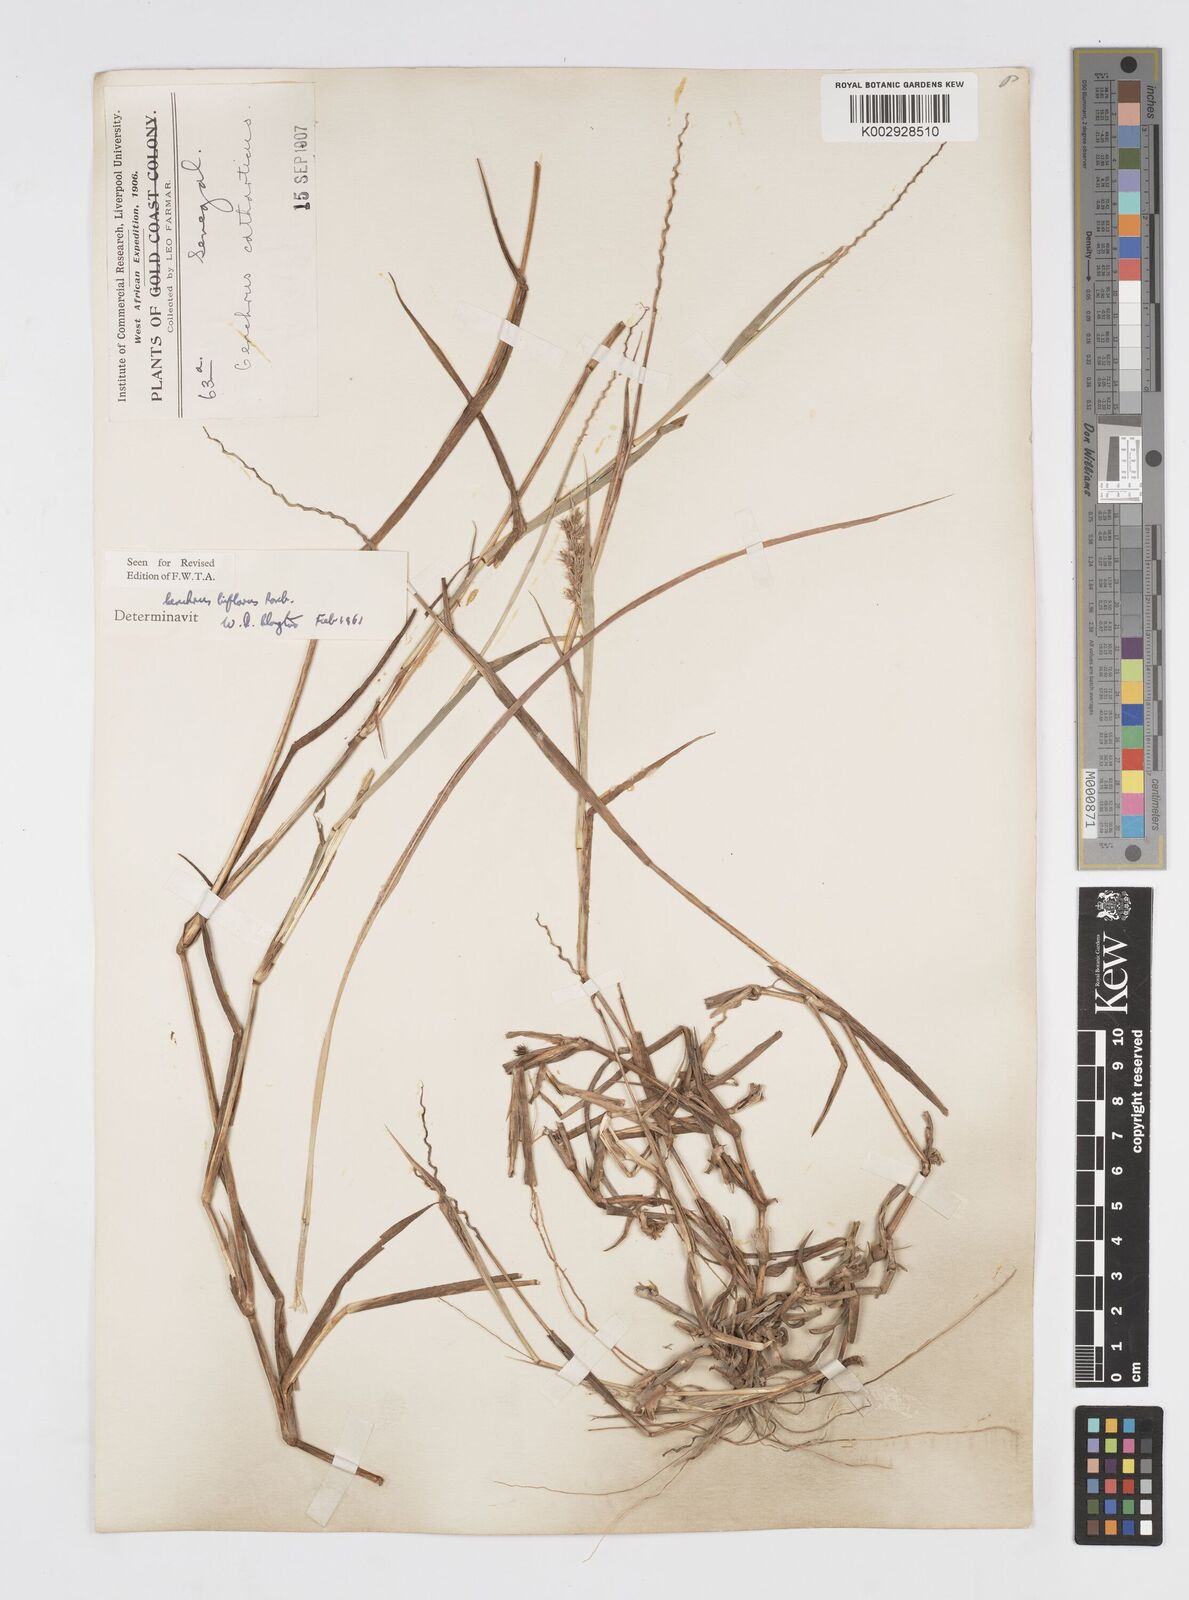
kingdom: Plantae
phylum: Tracheophyta
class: Liliopsida
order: Poales
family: Poaceae
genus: Cenchrus
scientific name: Cenchrus biflorus
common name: Indian sandbur
